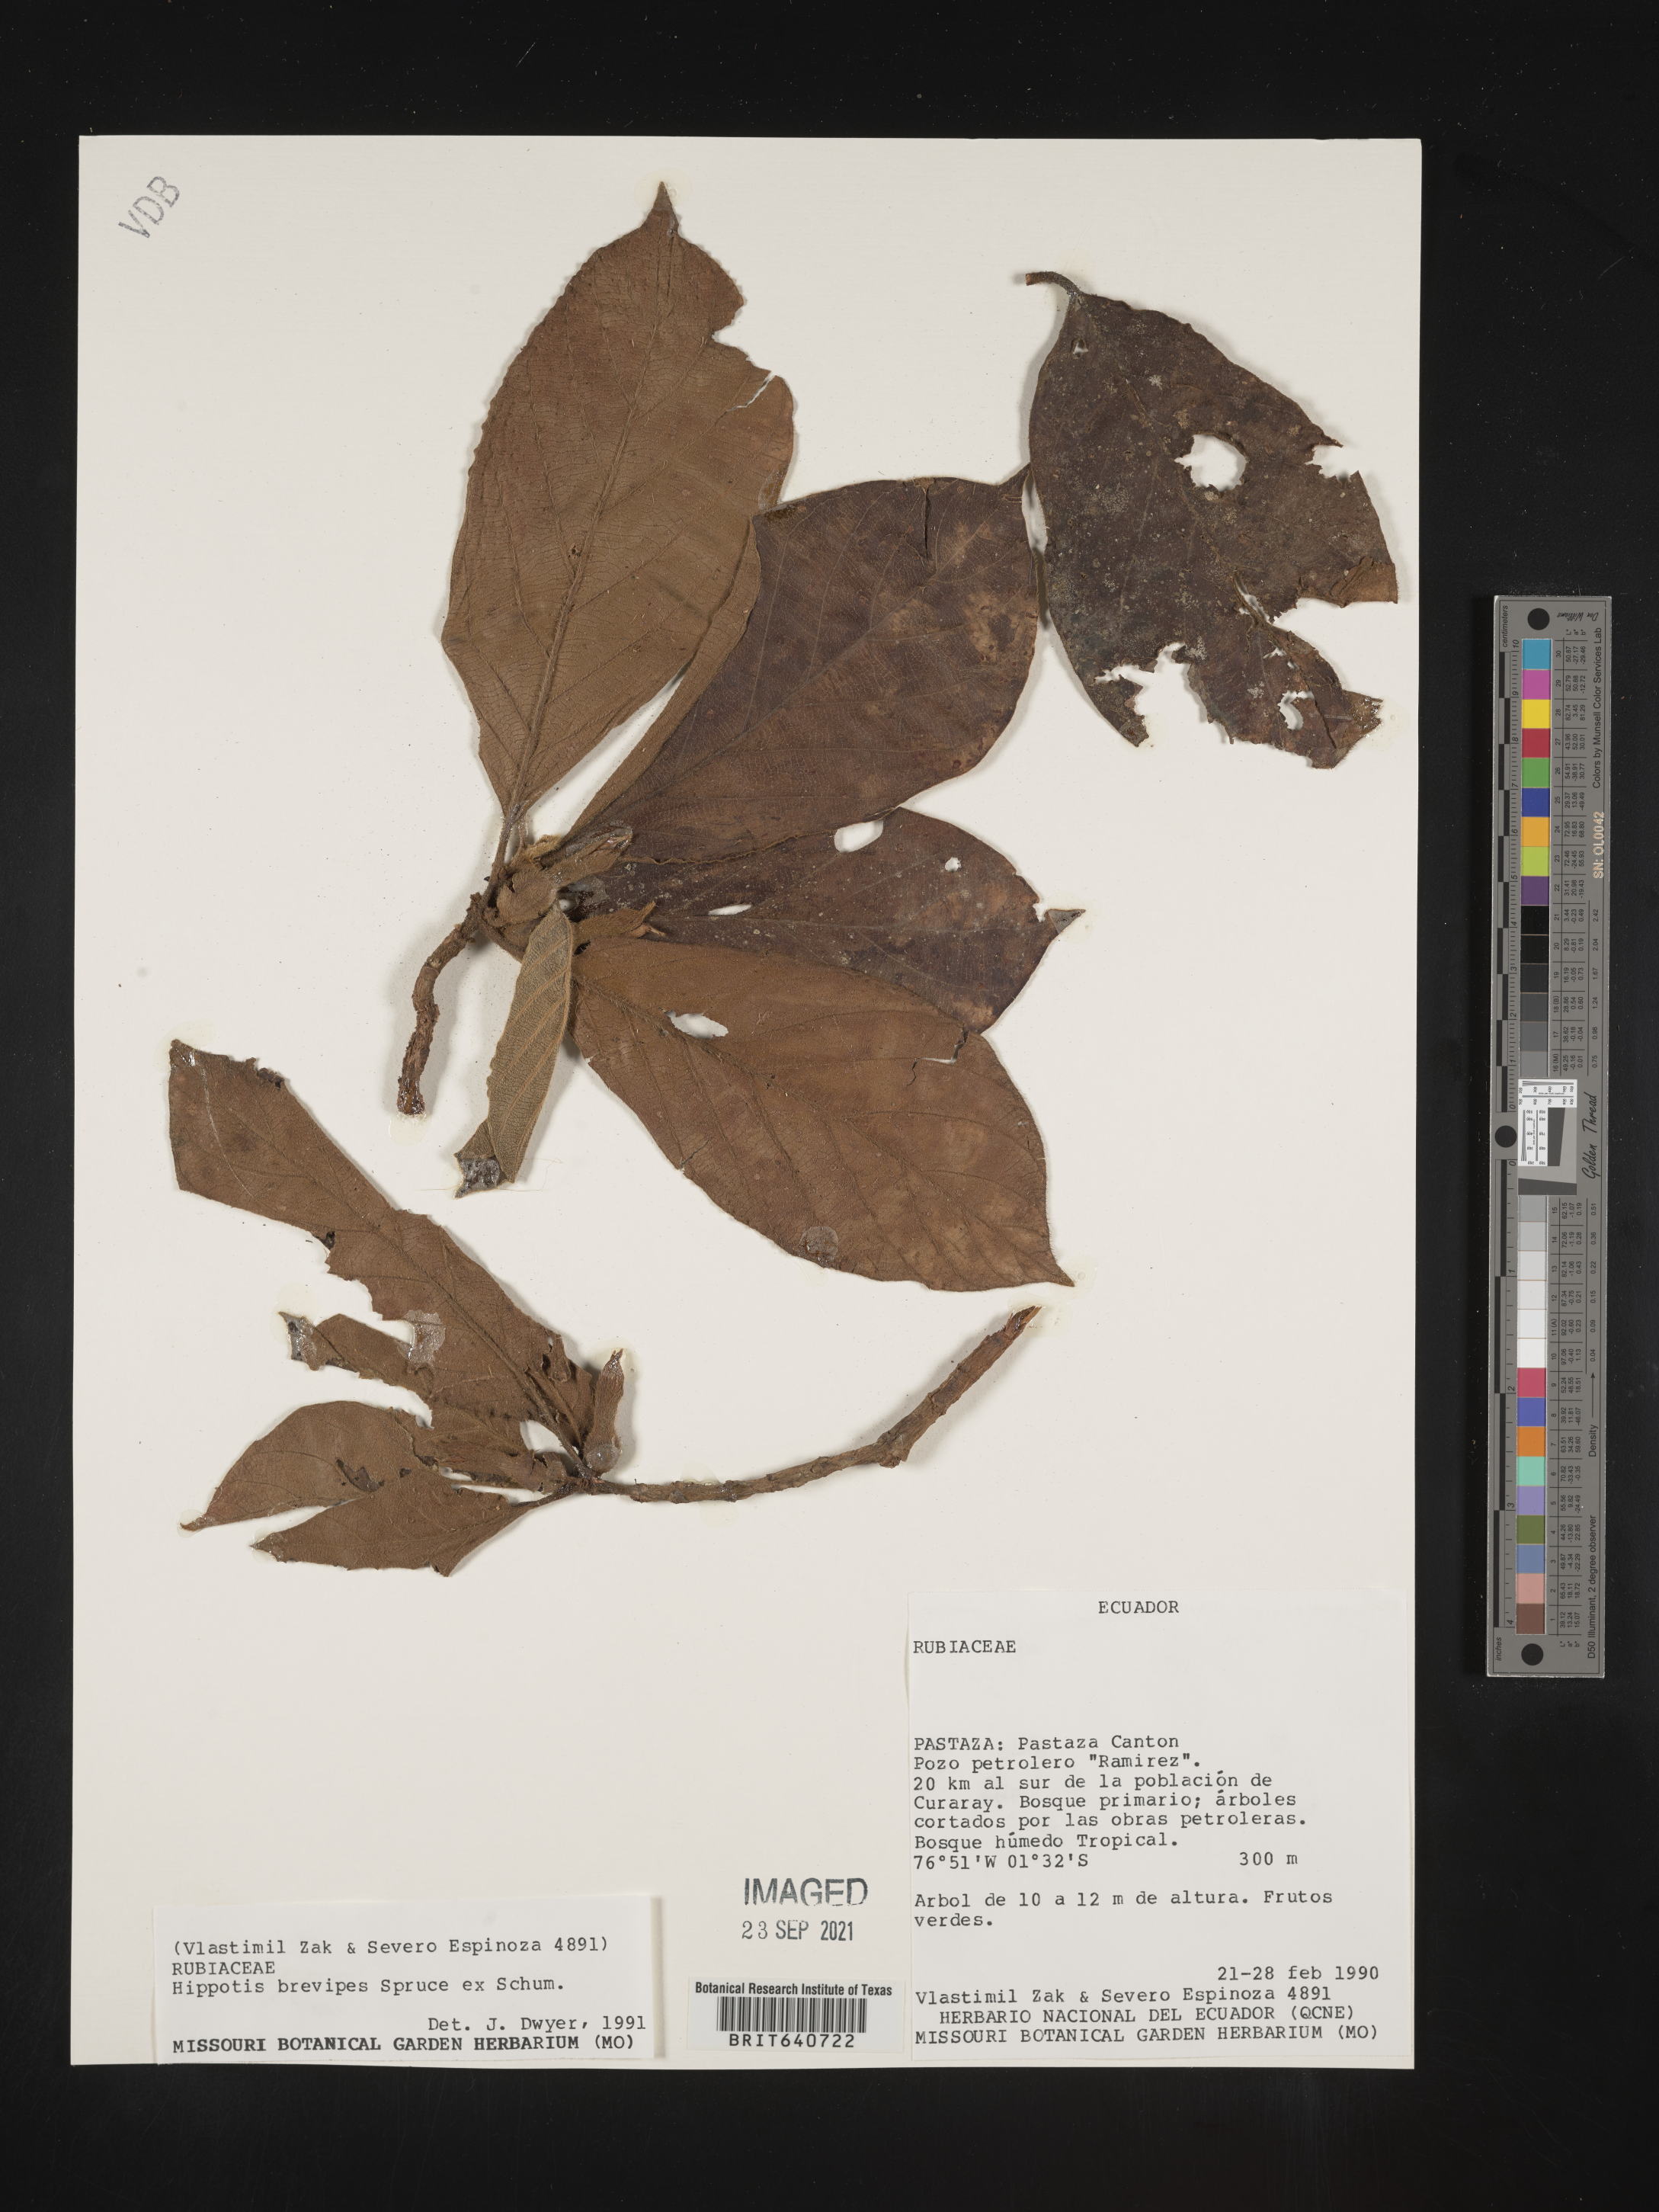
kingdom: Plantae
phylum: Tracheophyta
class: Magnoliopsida
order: Gentianales
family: Rubiaceae
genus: Hippotis
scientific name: Hippotis
